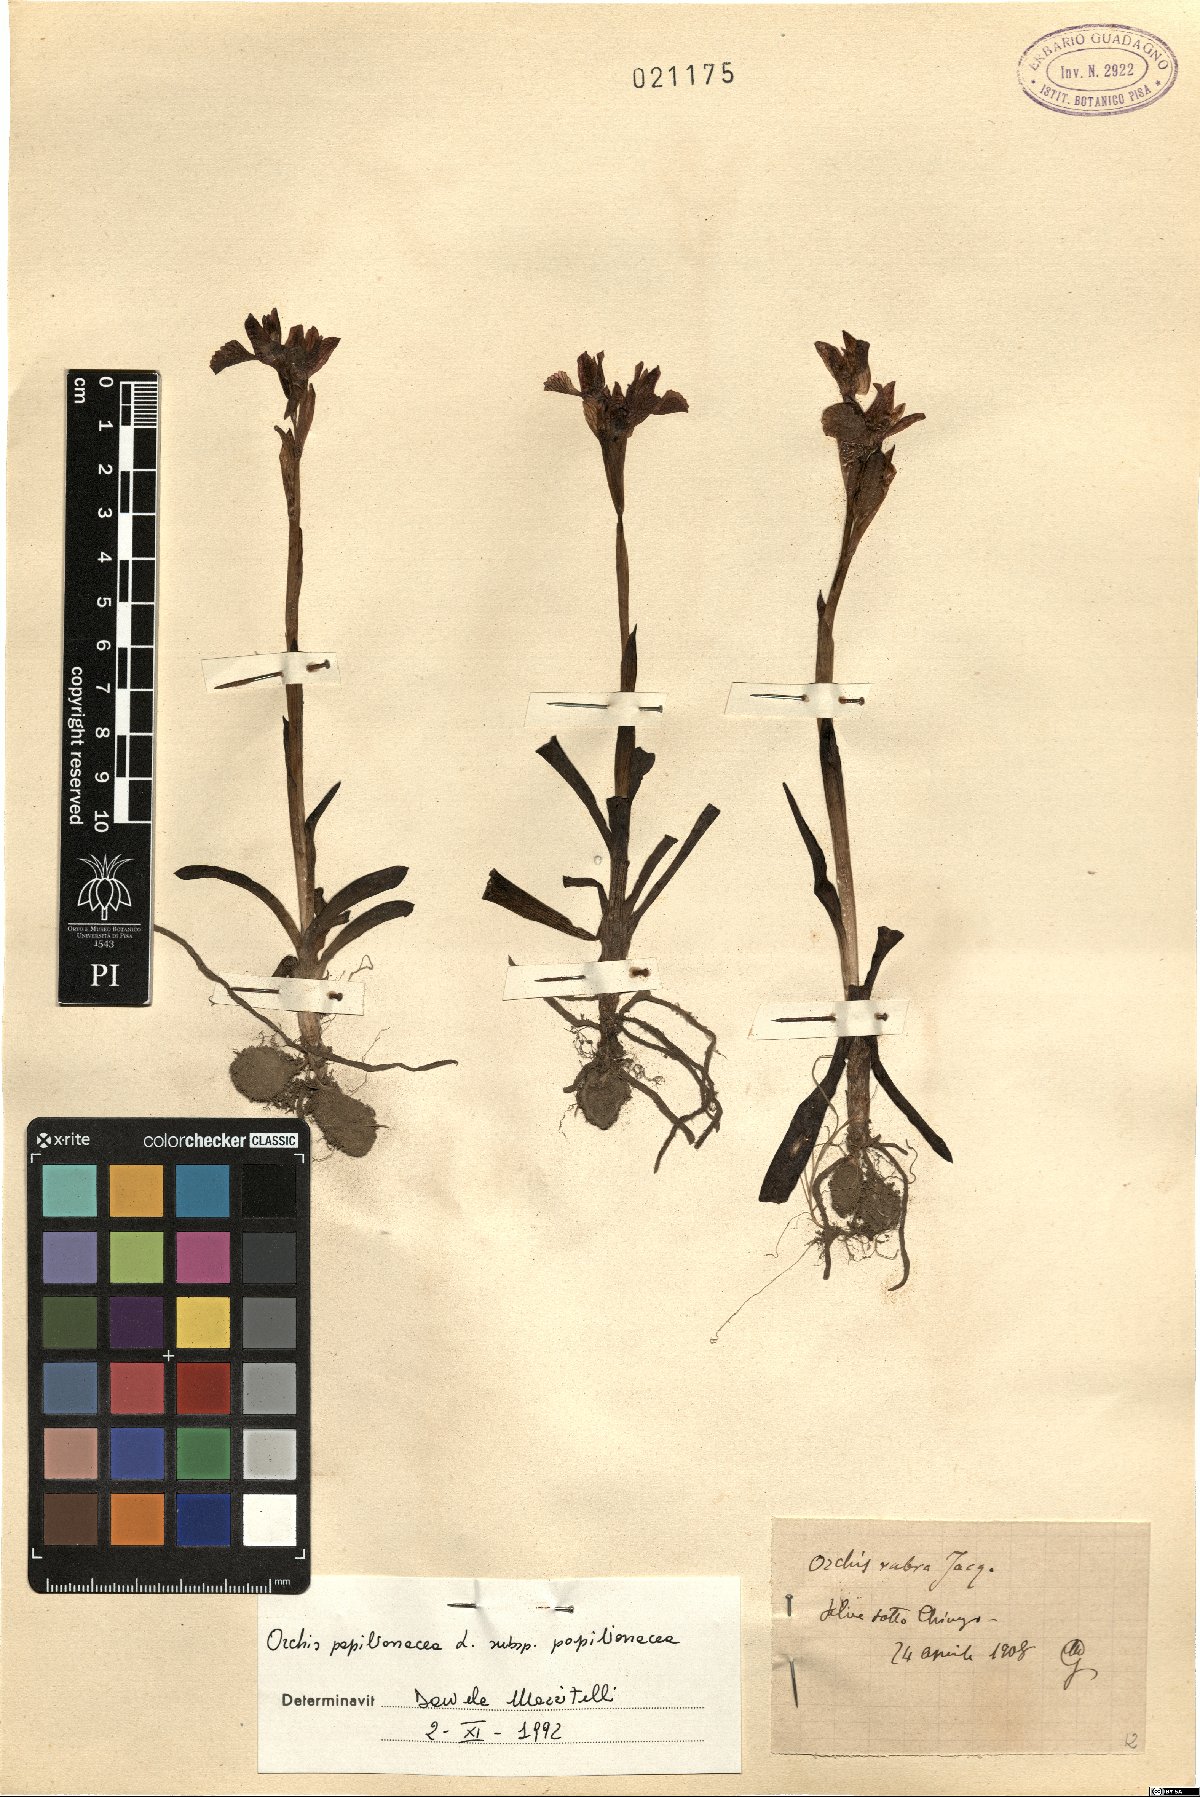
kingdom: Plantae
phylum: Tracheophyta
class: Liliopsida
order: Asparagales
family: Orchidaceae
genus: Anacamptis
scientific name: Anacamptis papilionacea
